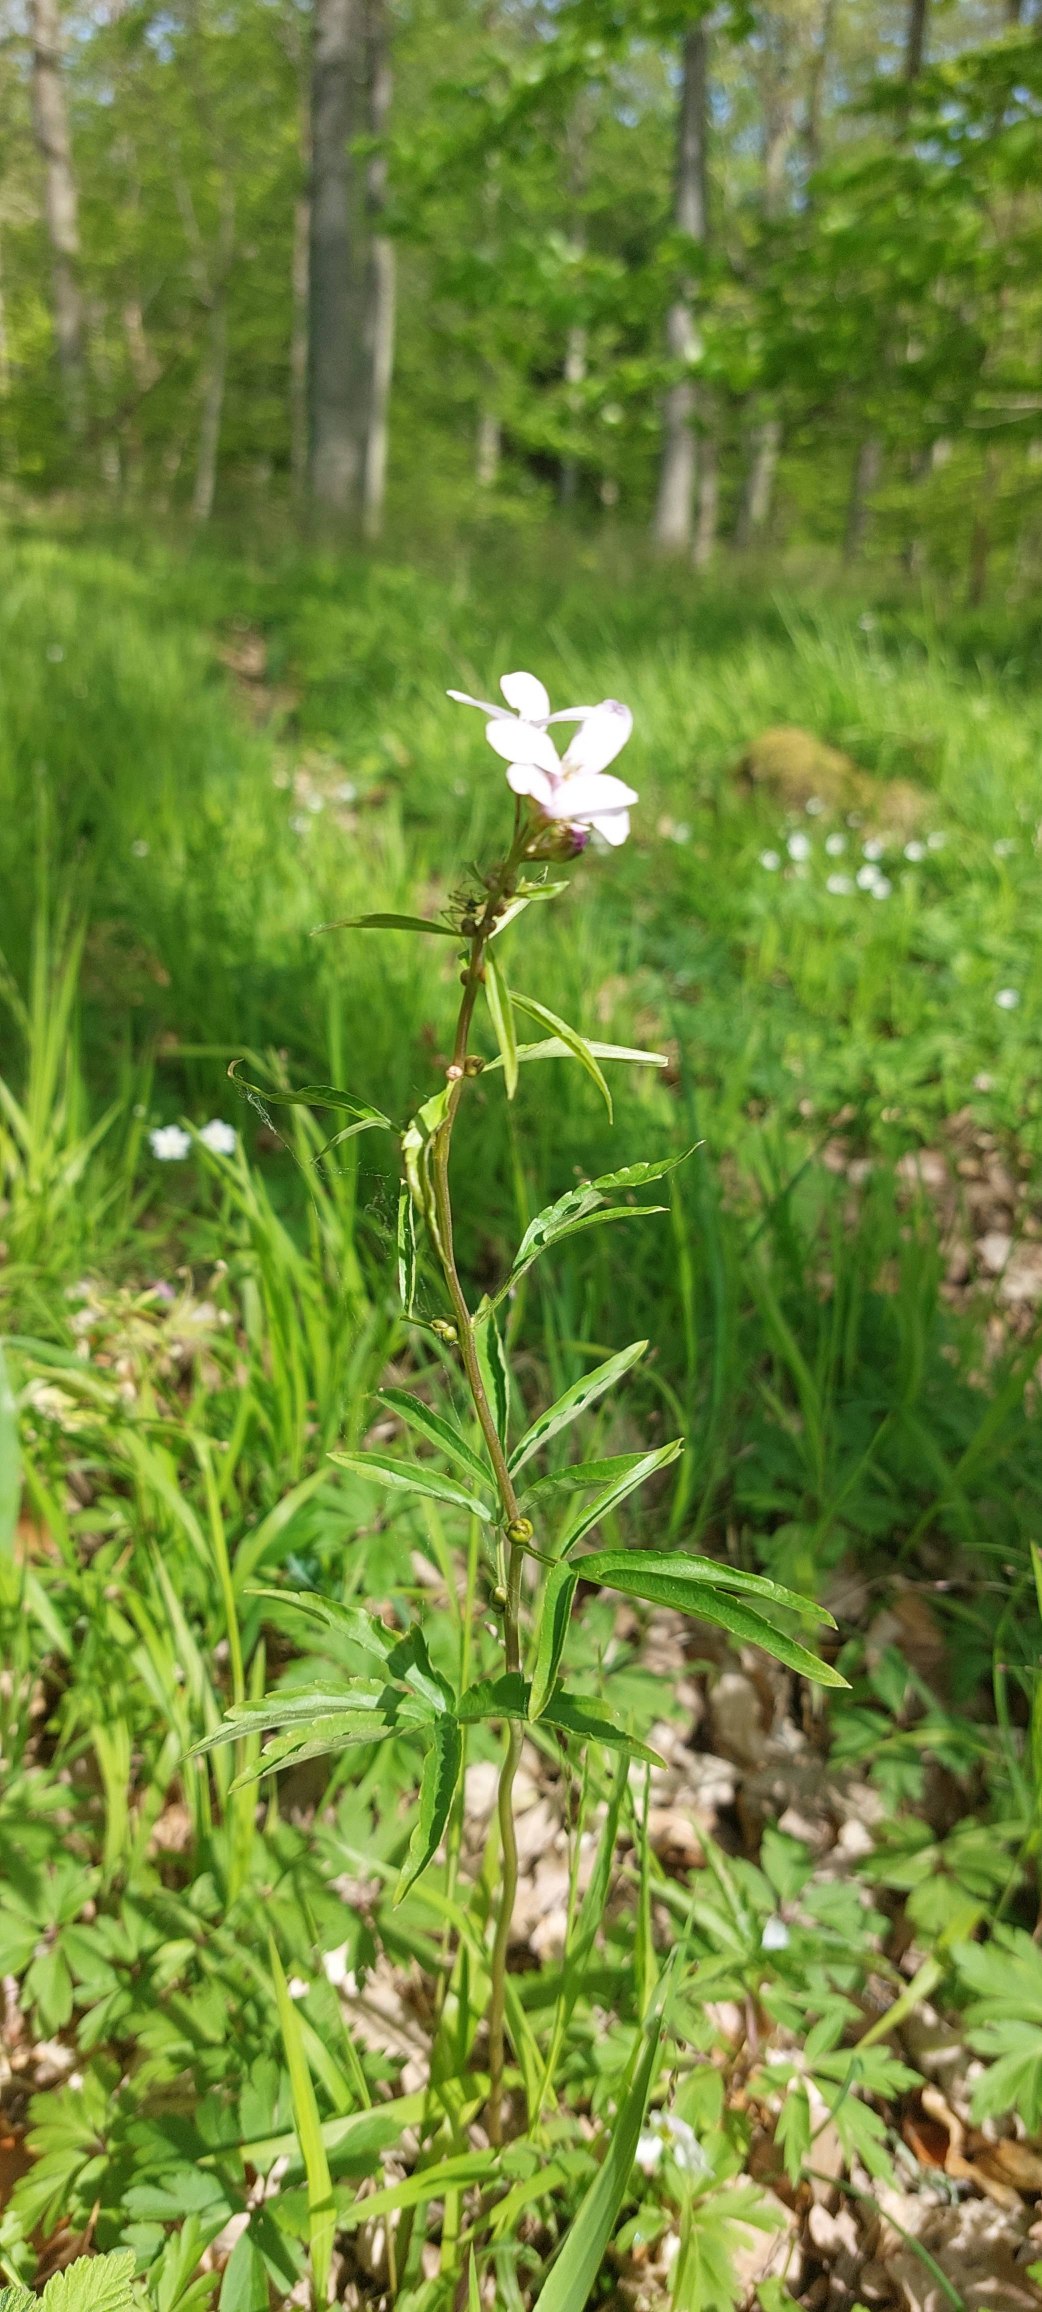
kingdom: Plantae
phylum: Tracheophyta
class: Magnoliopsida
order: Brassicales
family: Brassicaceae
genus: Cardamine
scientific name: Cardamine bulbifera
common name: Tandrod
